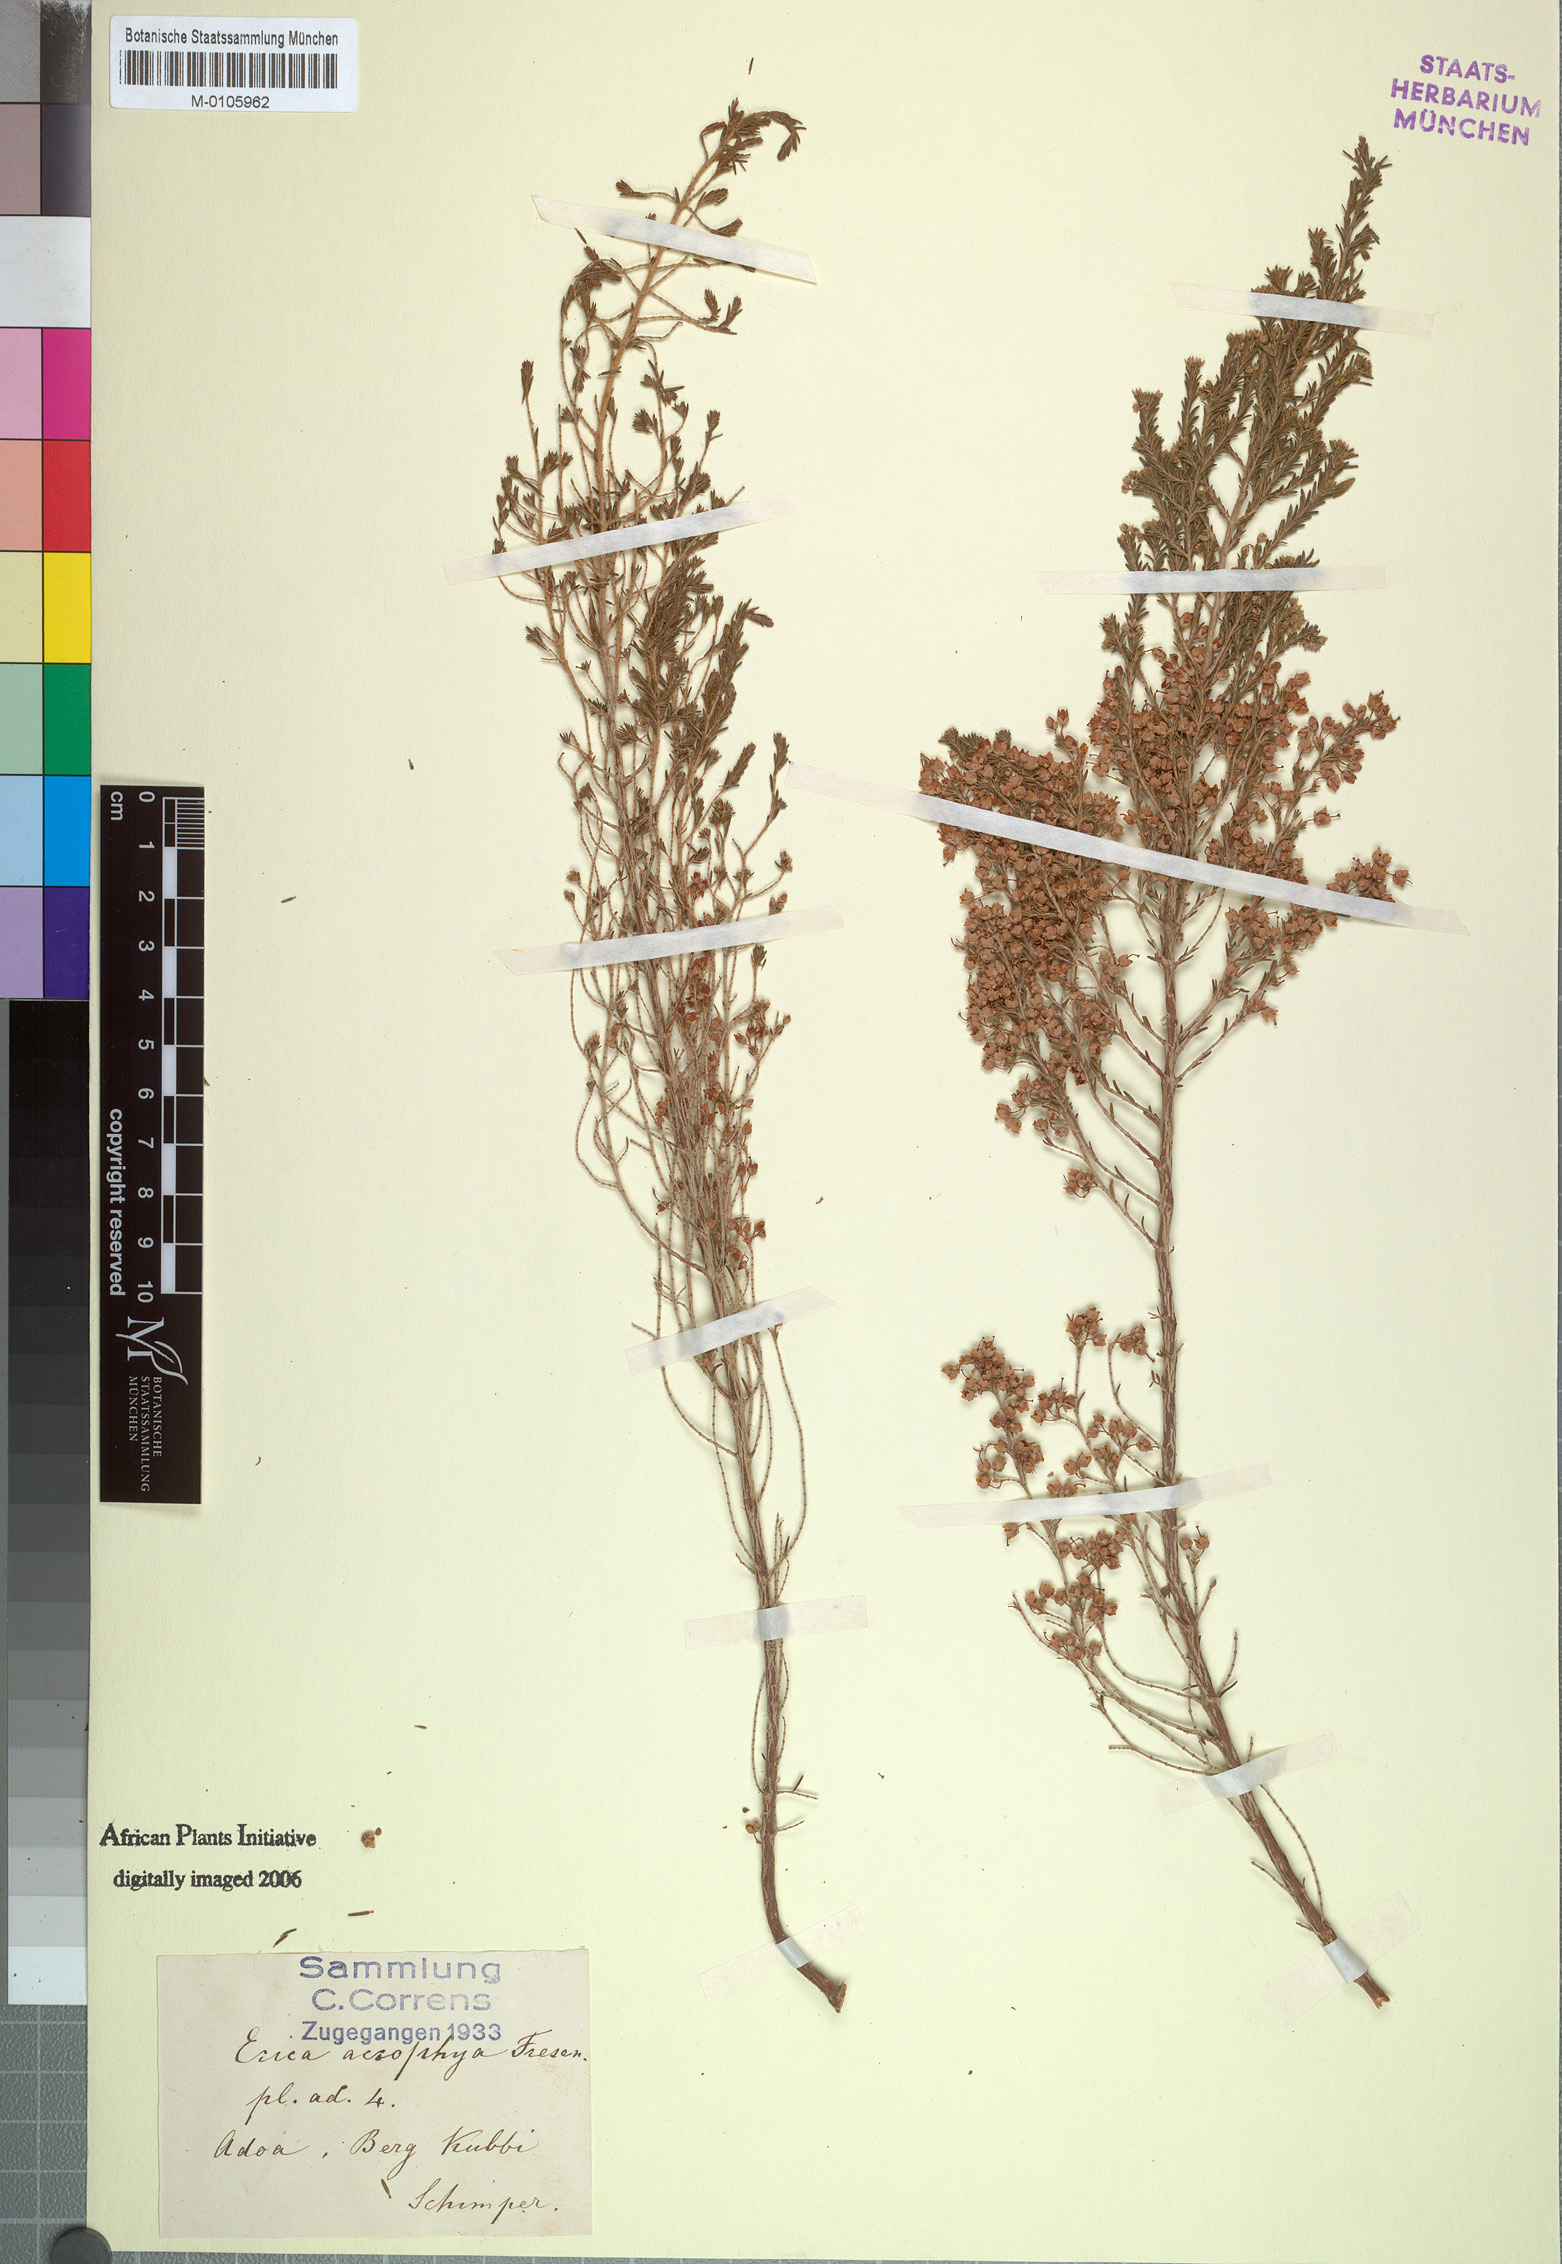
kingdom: Plantae
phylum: Tracheophyta
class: Magnoliopsida
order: Ericales
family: Ericaceae
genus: Erica
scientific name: Erica arborea
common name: Tree heath
